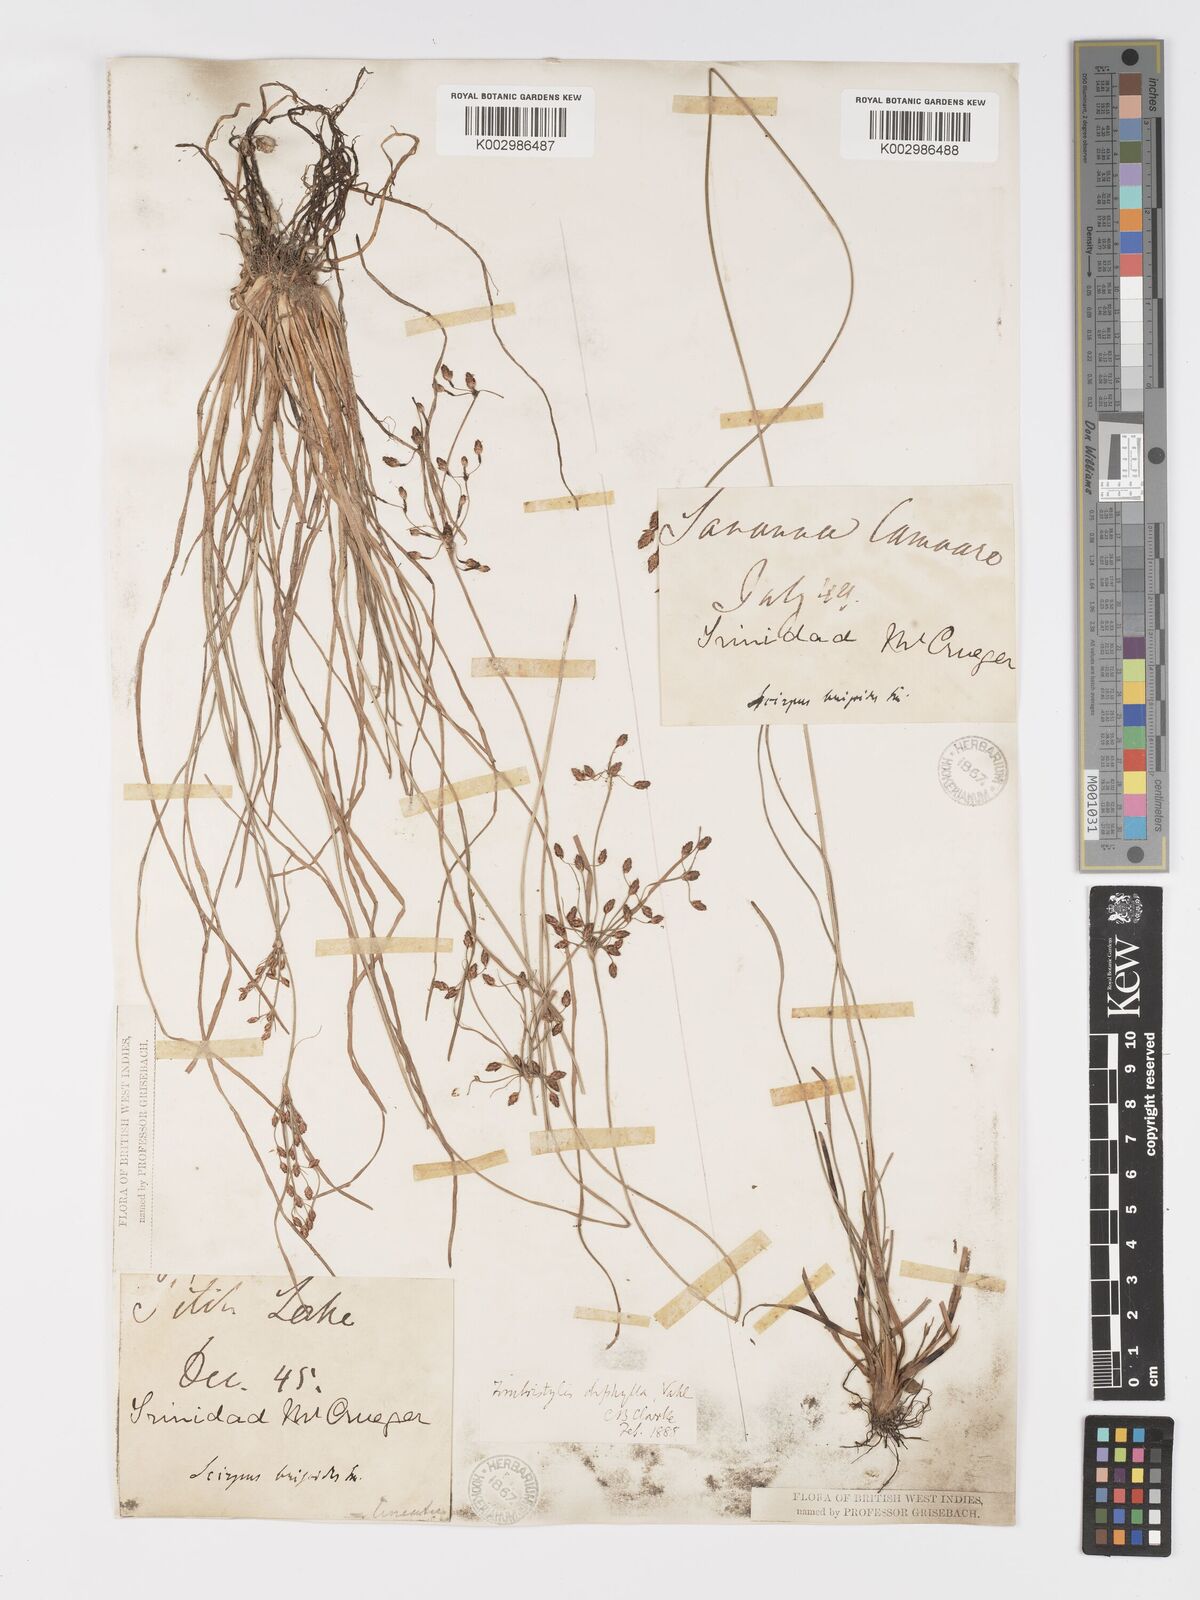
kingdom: Plantae
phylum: Tracheophyta
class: Liliopsida
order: Poales
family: Cyperaceae
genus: Fimbristylis
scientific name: Fimbristylis dichotoma
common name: Forked fimbry
